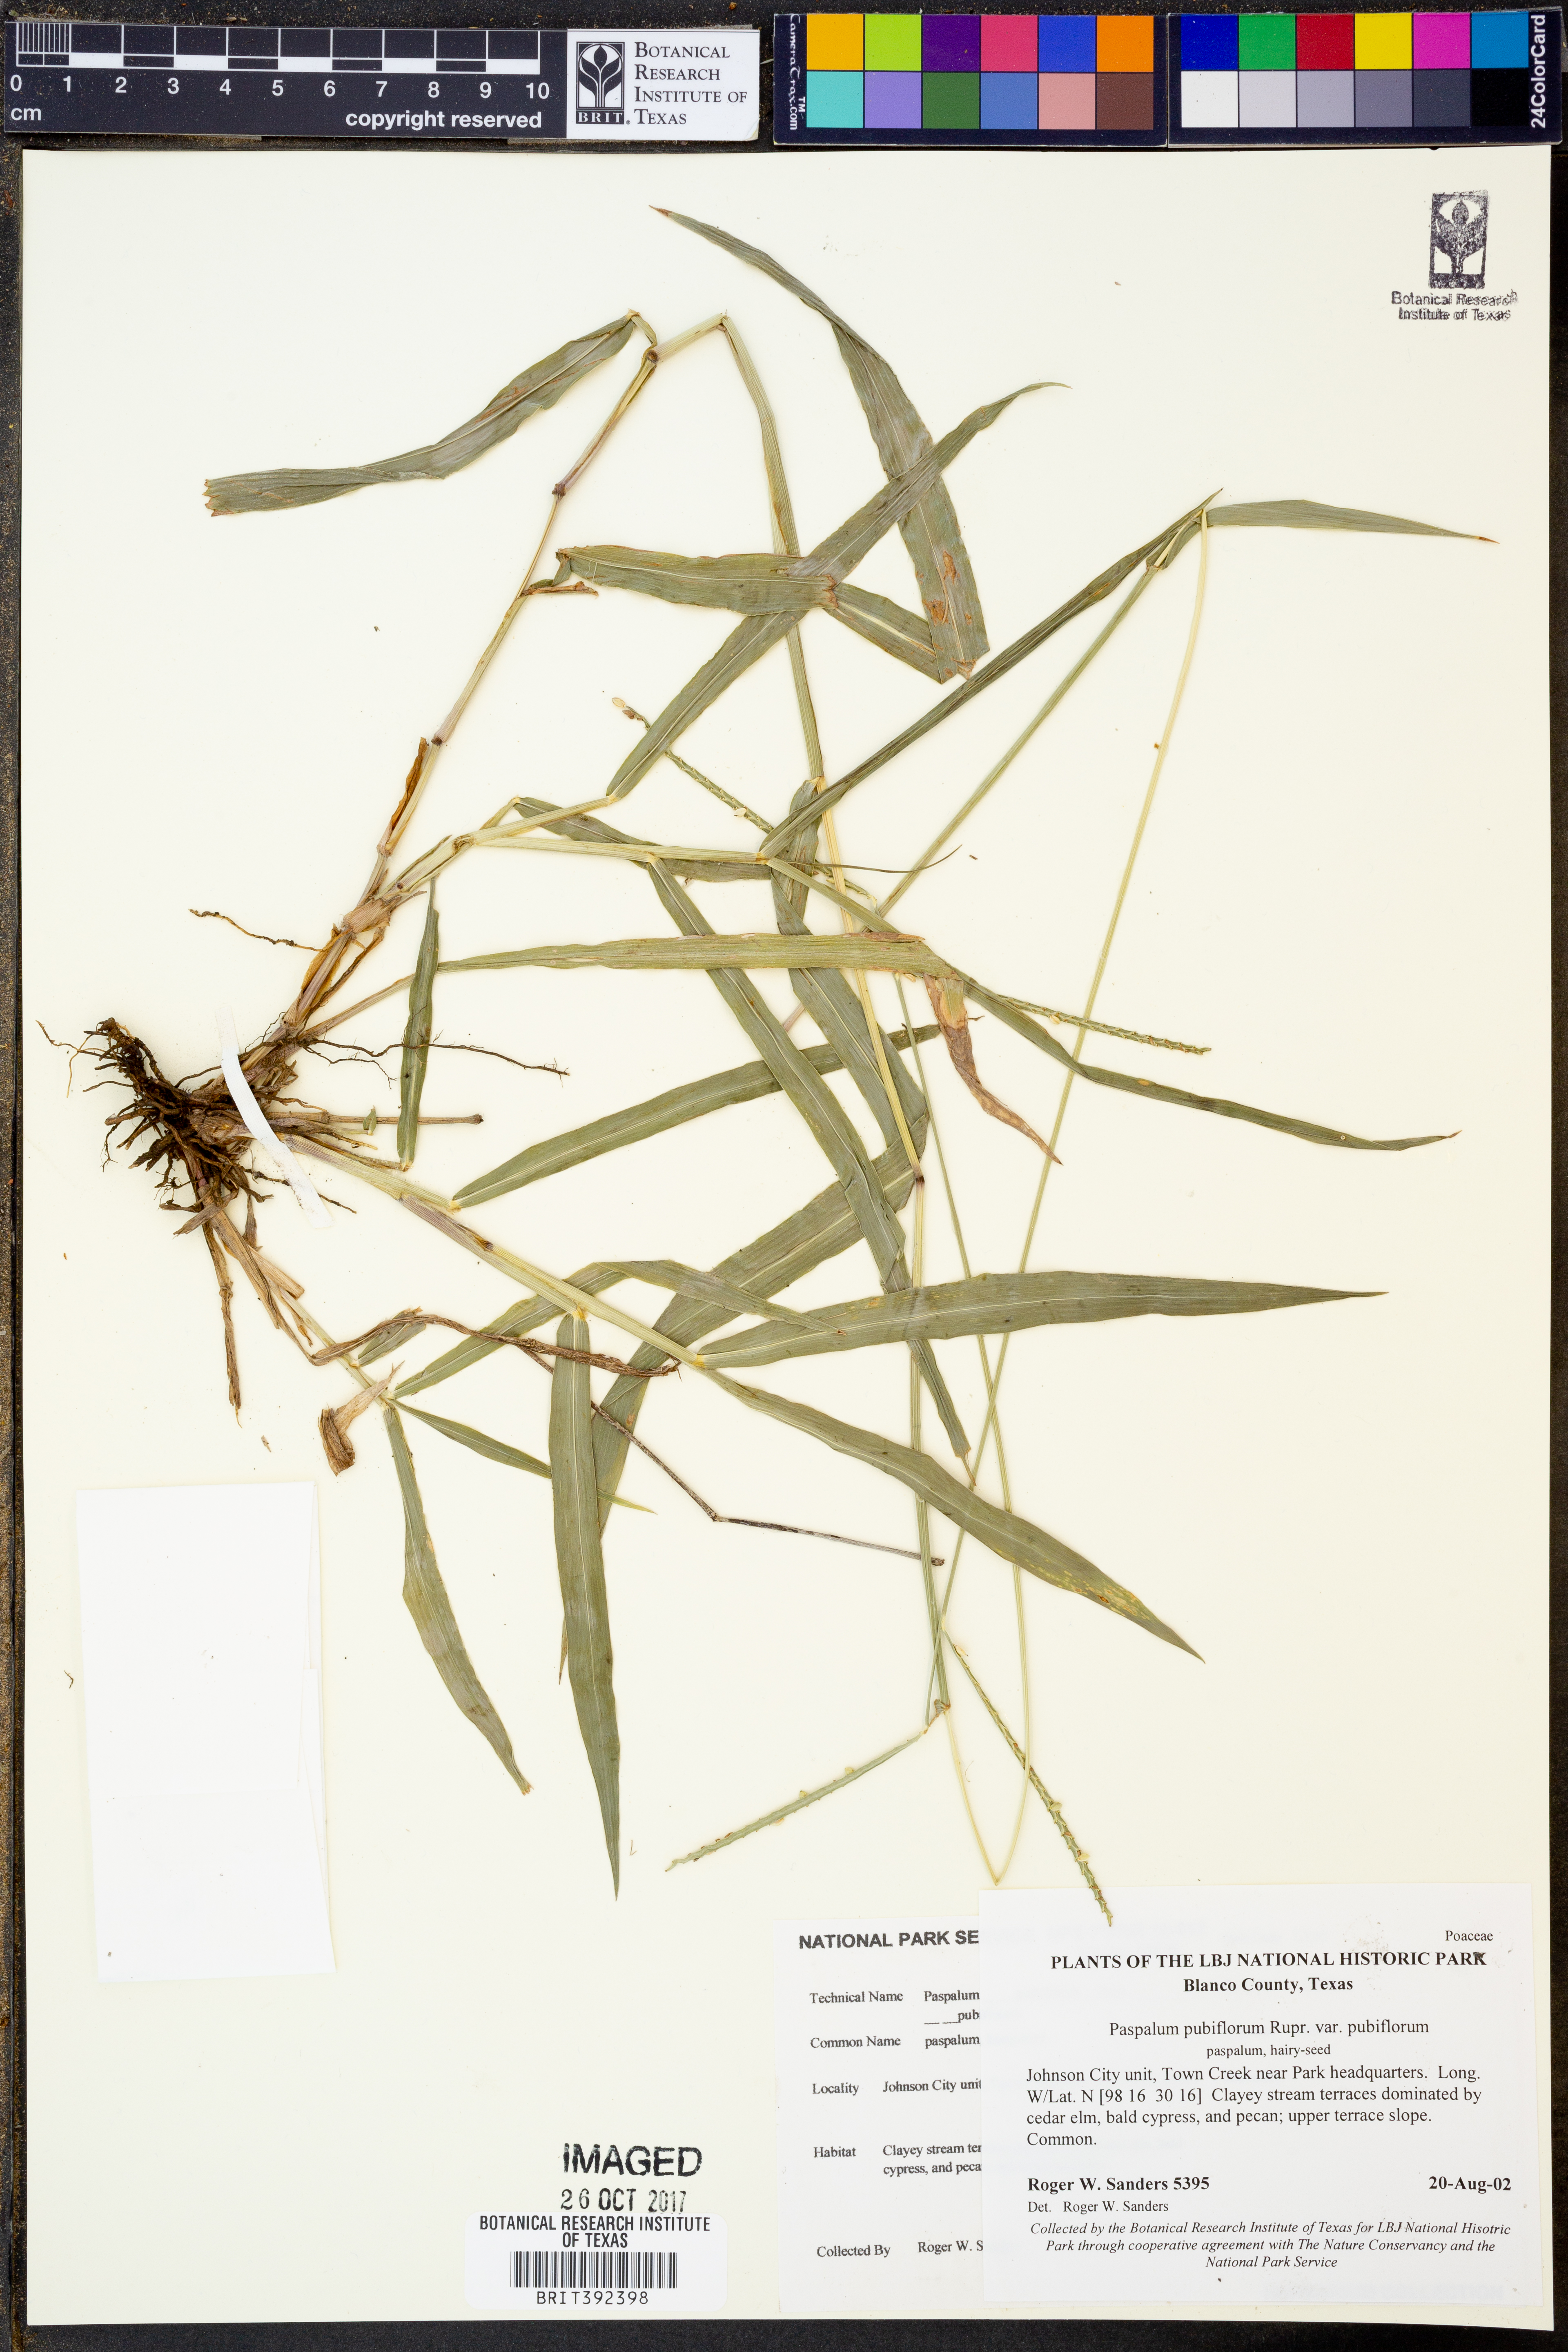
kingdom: Plantae
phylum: Tracheophyta
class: Liliopsida
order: Poales
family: Poaceae
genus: Paspalum
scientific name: Paspalum pubiflorum
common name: Hairy-seed paspalum
